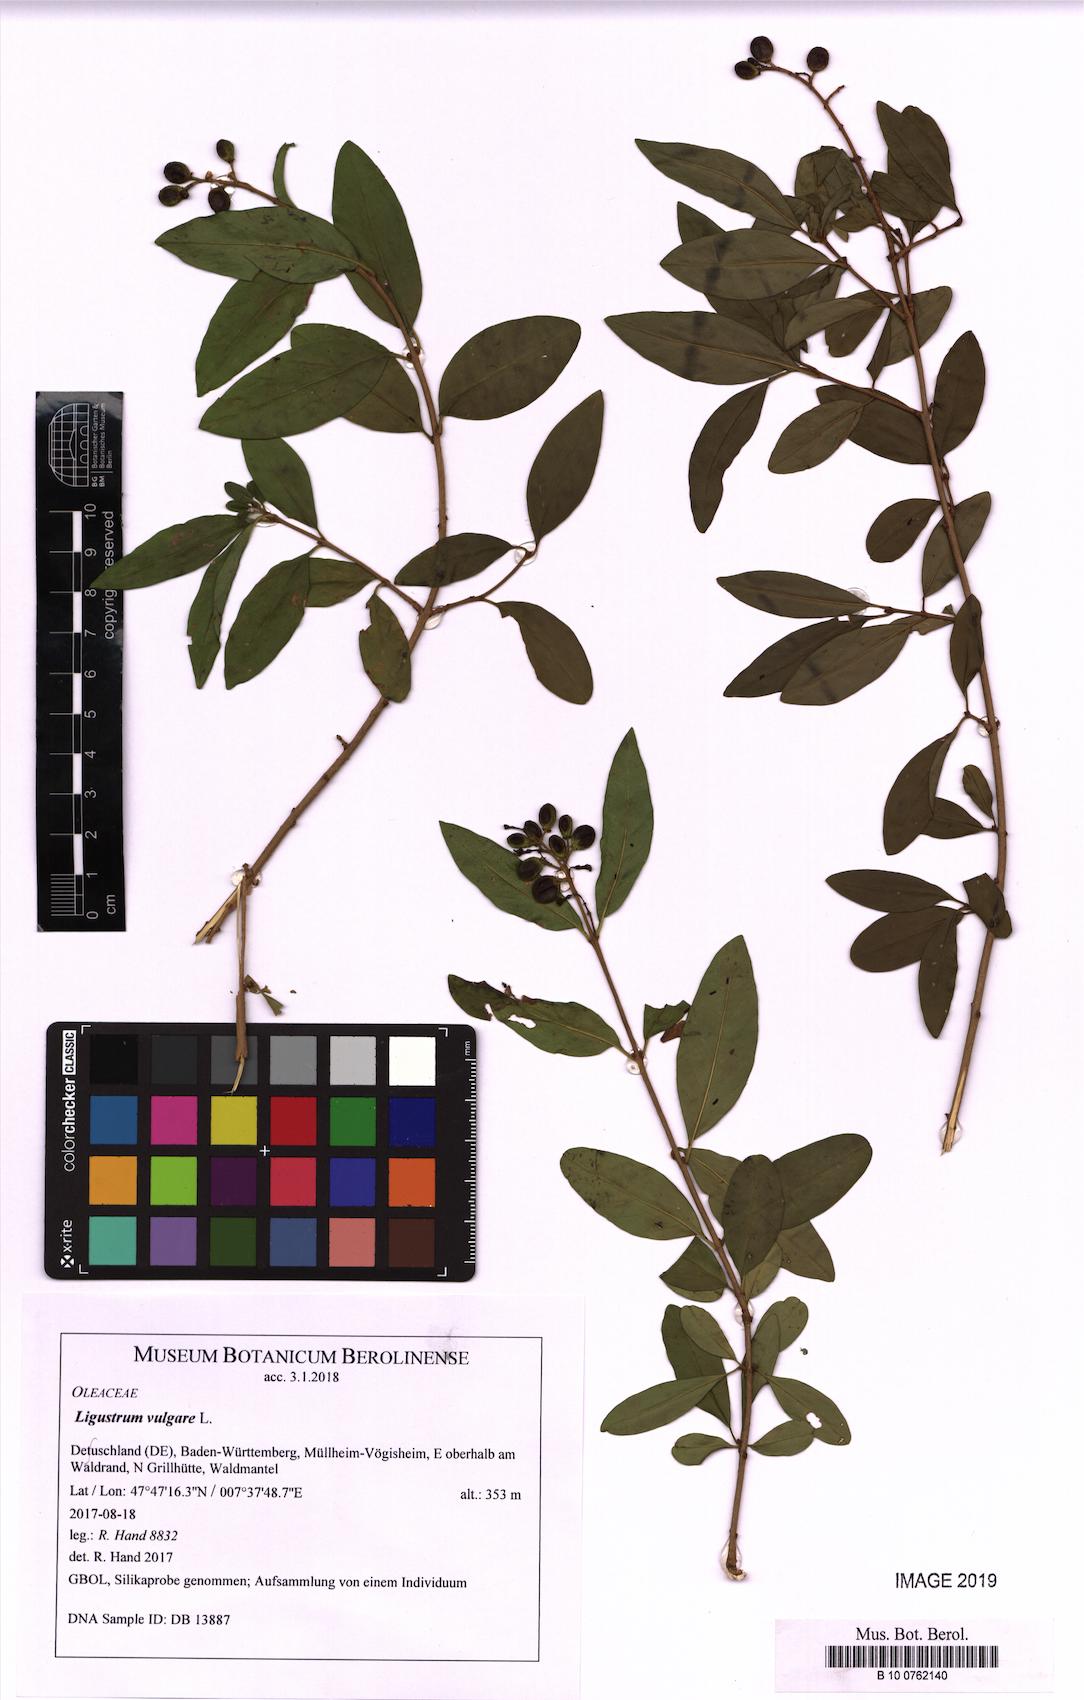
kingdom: Plantae
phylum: Tracheophyta
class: Magnoliopsida
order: Lamiales
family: Oleaceae
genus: Ligustrum
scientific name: Ligustrum vulgare
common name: Wild privet
